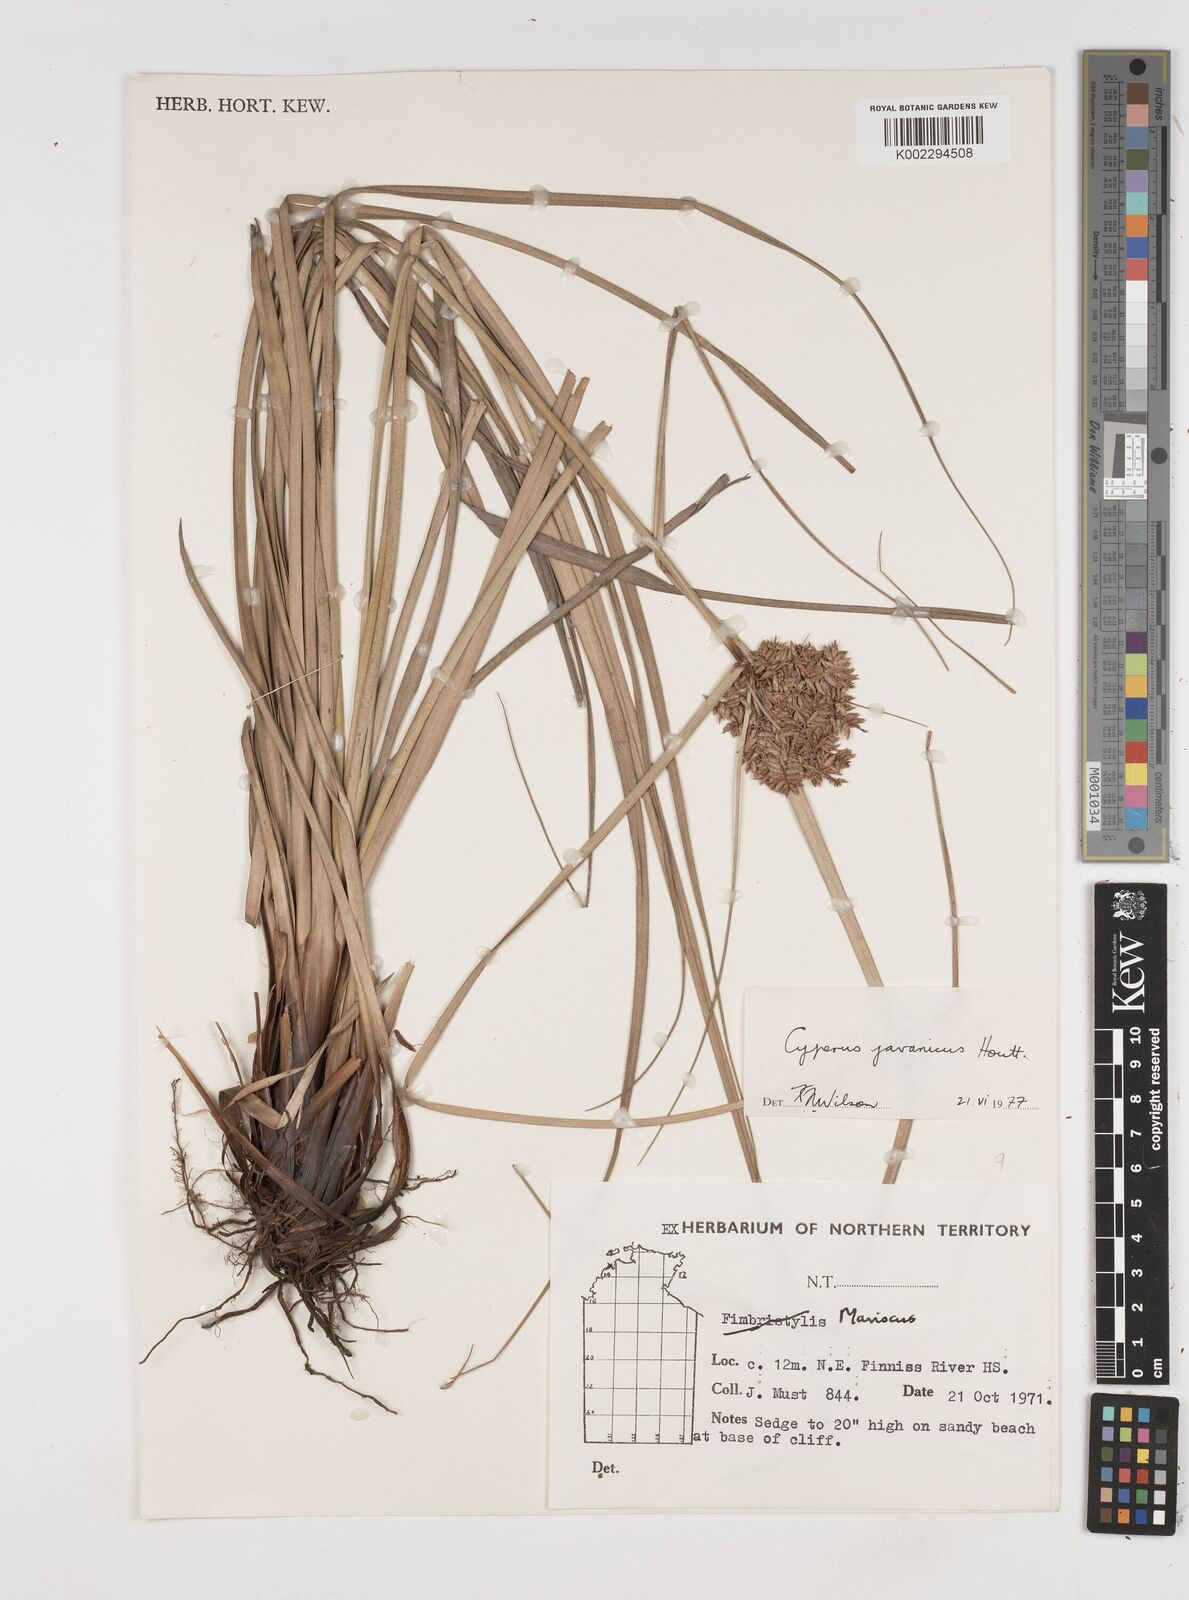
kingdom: Plantae
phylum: Tracheophyta
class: Liliopsida
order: Poales
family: Cyperaceae
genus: Cyperus
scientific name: Cyperus javanicus
